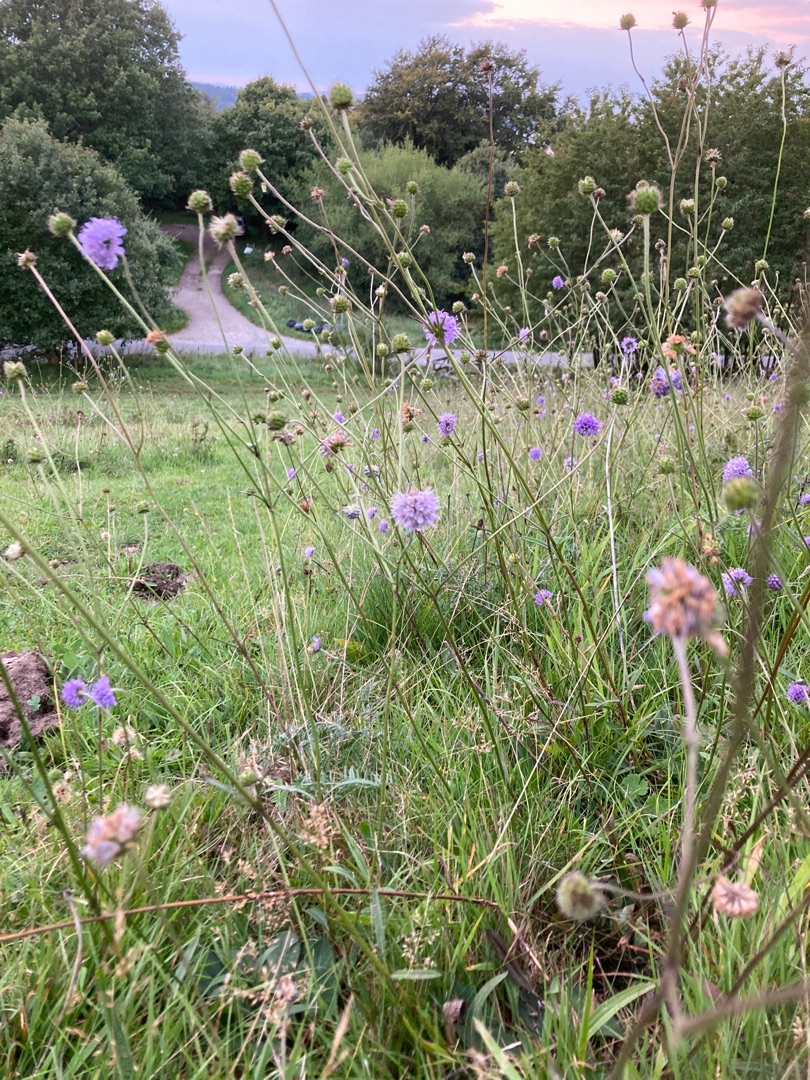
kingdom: Plantae
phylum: Tracheophyta
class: Magnoliopsida
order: Dipsacales
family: Caprifoliaceae
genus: Succisa
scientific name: Succisa pratensis
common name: Djævelsbid
